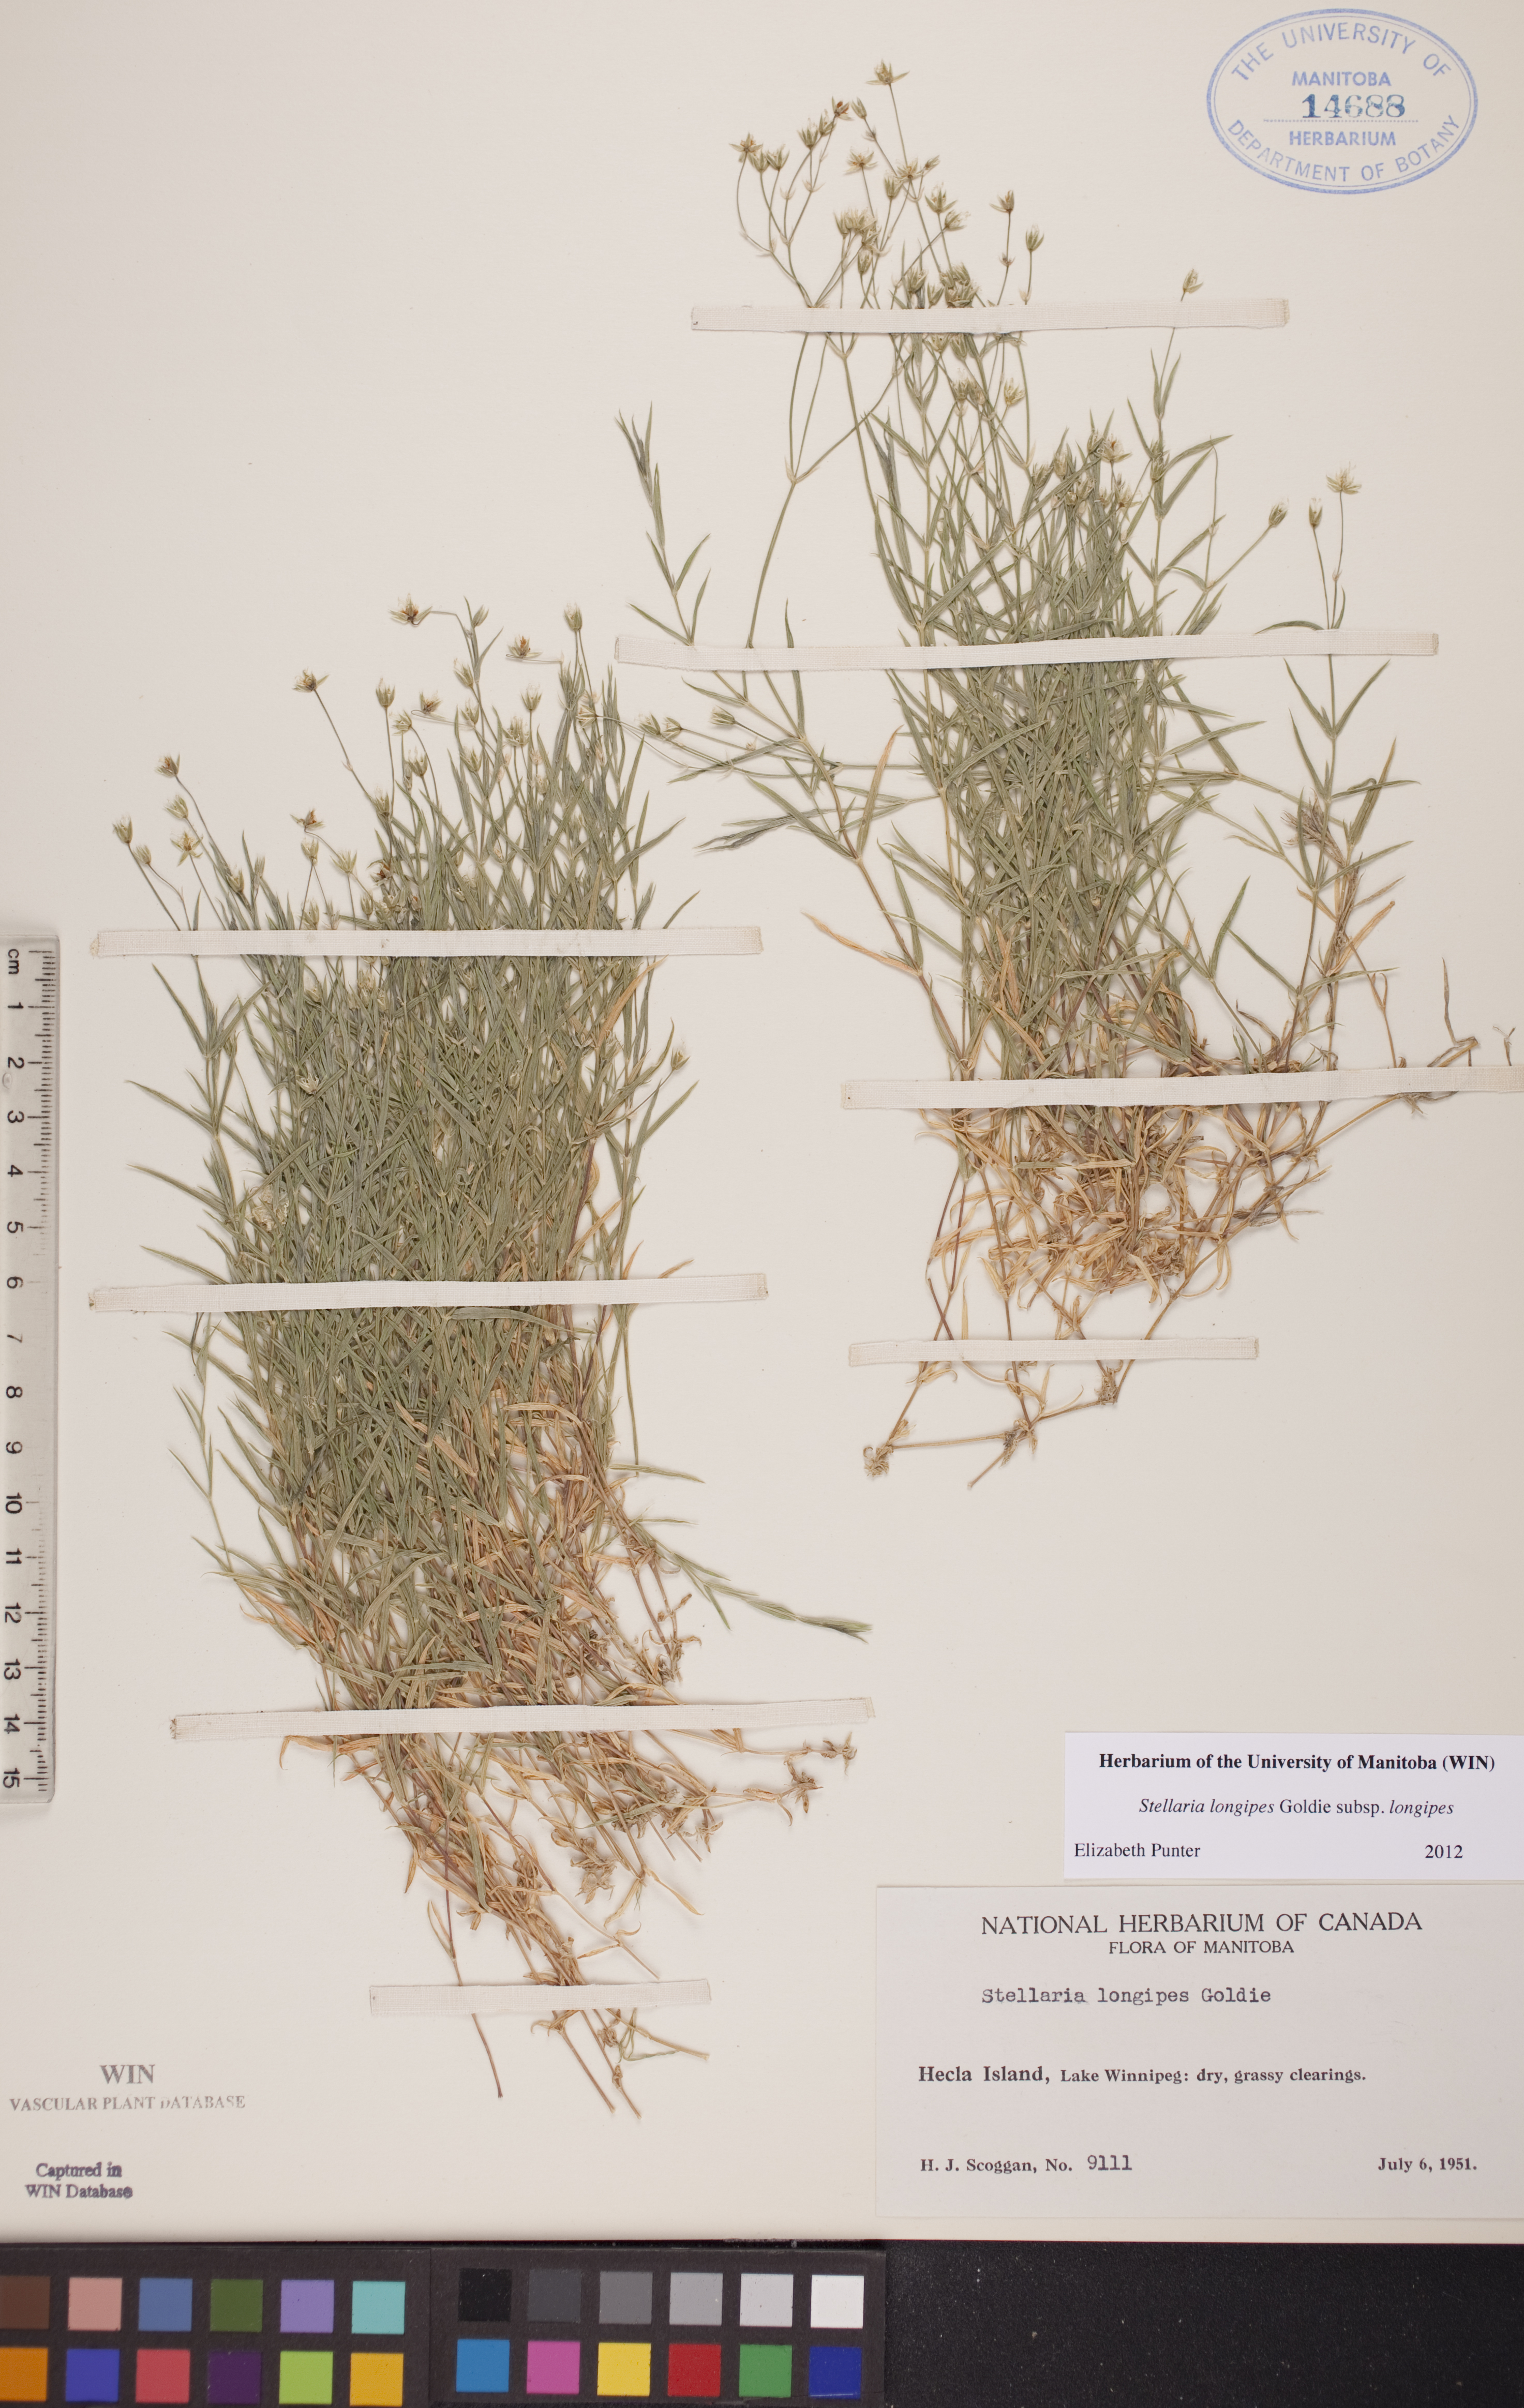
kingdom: Plantae
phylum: Tracheophyta
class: Magnoliopsida
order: Caryophyllales
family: Caryophyllaceae
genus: Stellaria
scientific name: Stellaria longipes
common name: Goldie's starwort
